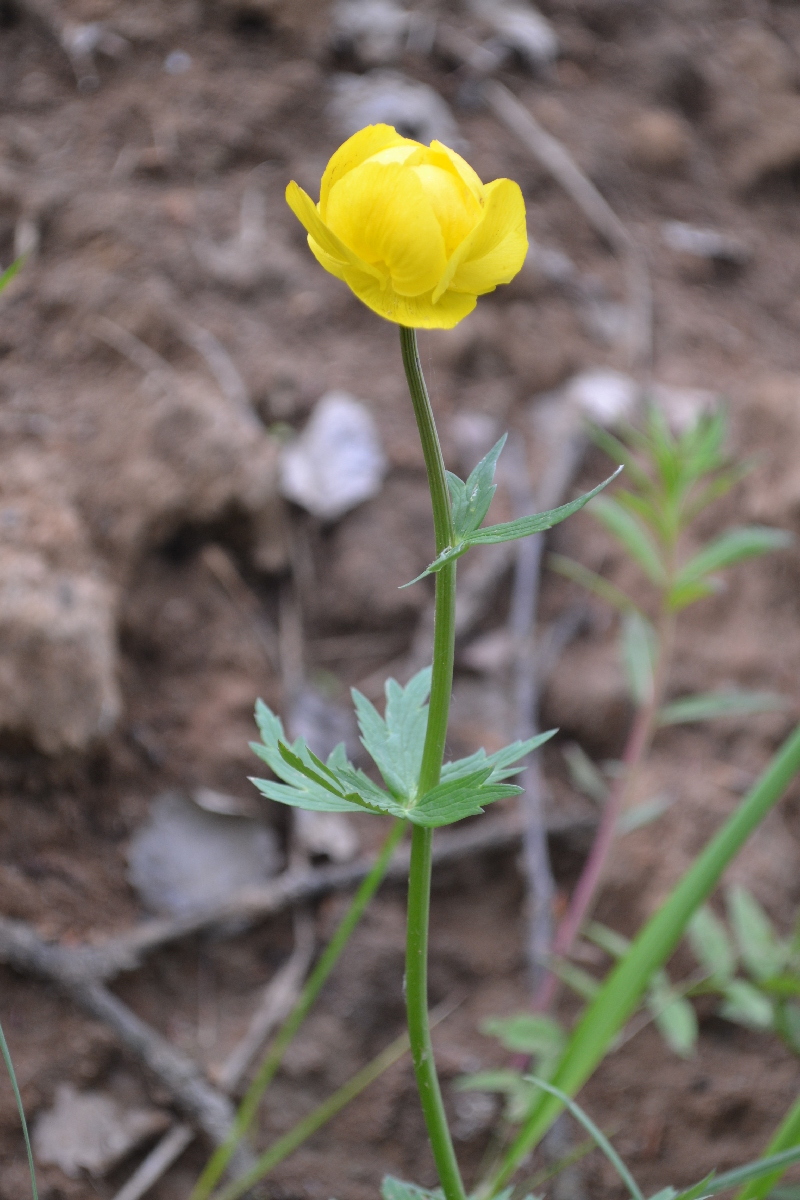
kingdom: Plantae
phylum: Tracheophyta
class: Magnoliopsida
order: Ranunculales
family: Ranunculaceae
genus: Trollius
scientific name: Trollius europaeus
